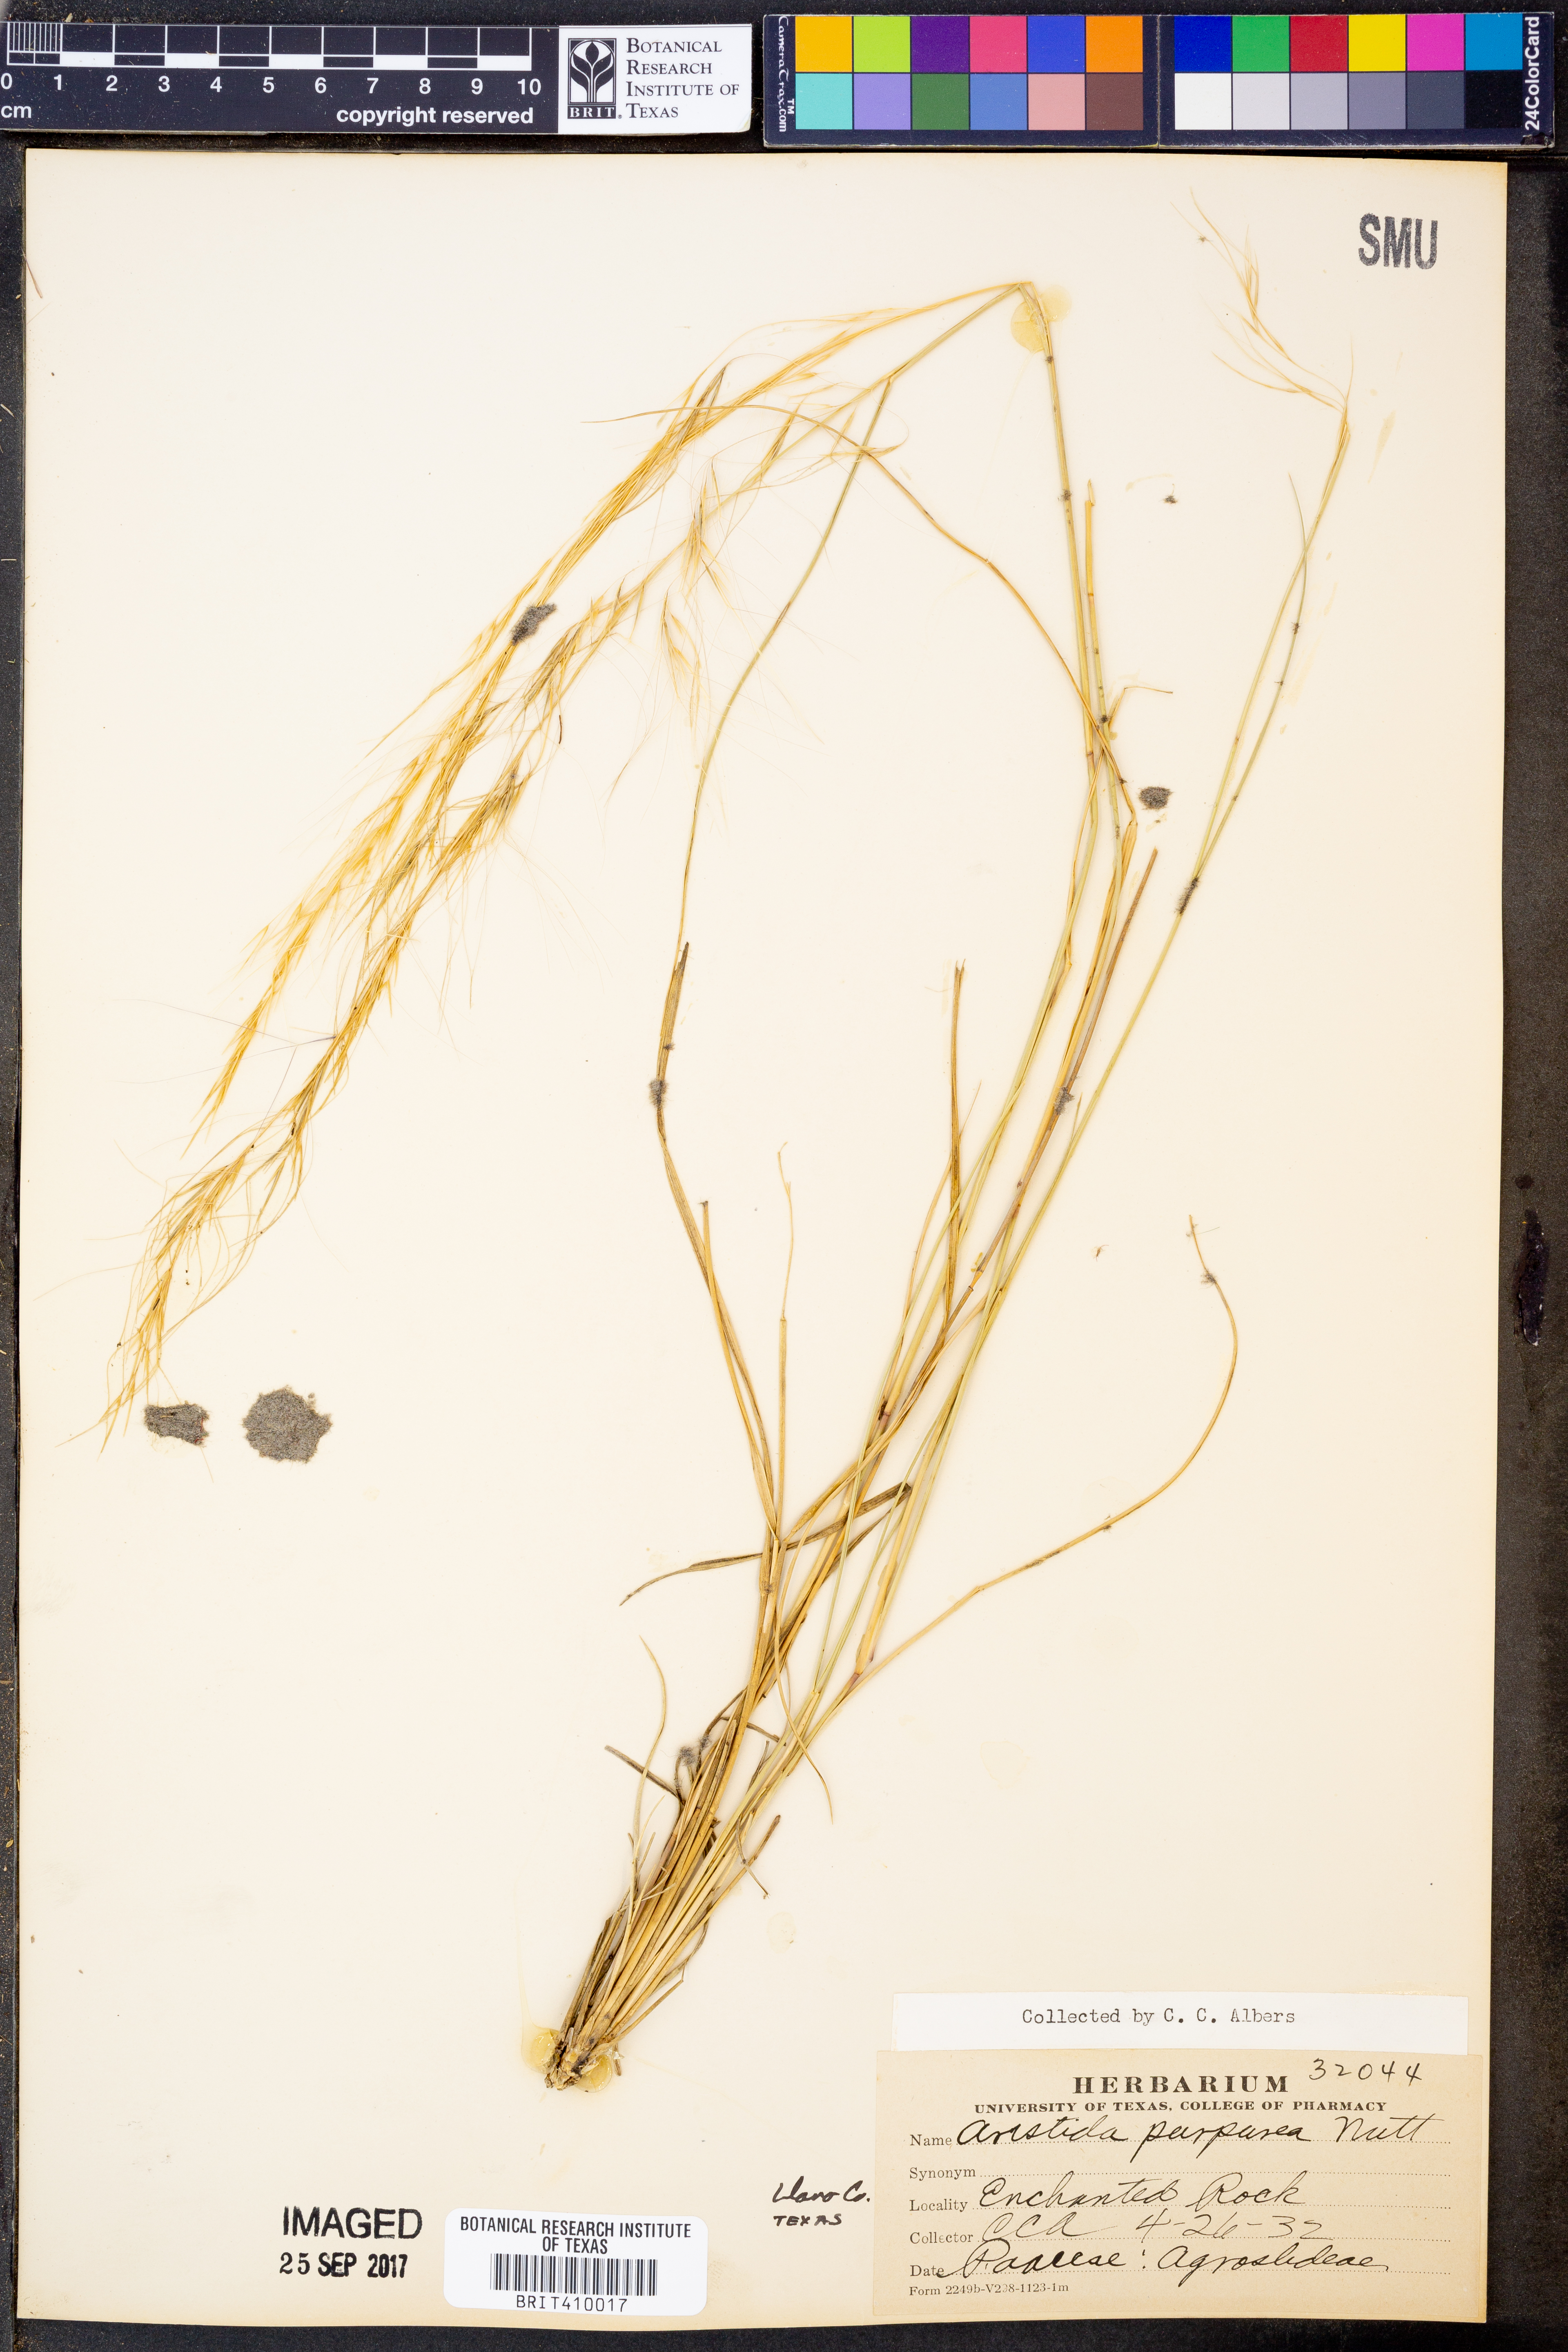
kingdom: Plantae
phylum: Tracheophyta
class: Liliopsida
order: Poales
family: Poaceae
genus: Aristida
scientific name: Aristida purpurea
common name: Purple threeawn
